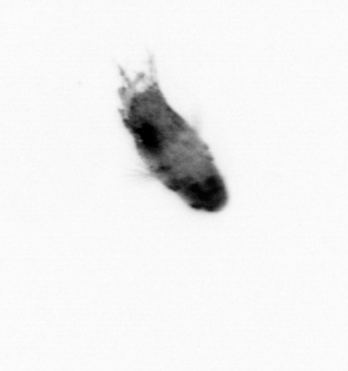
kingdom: Animalia
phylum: Arthropoda
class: Copepoda
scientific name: Copepoda
